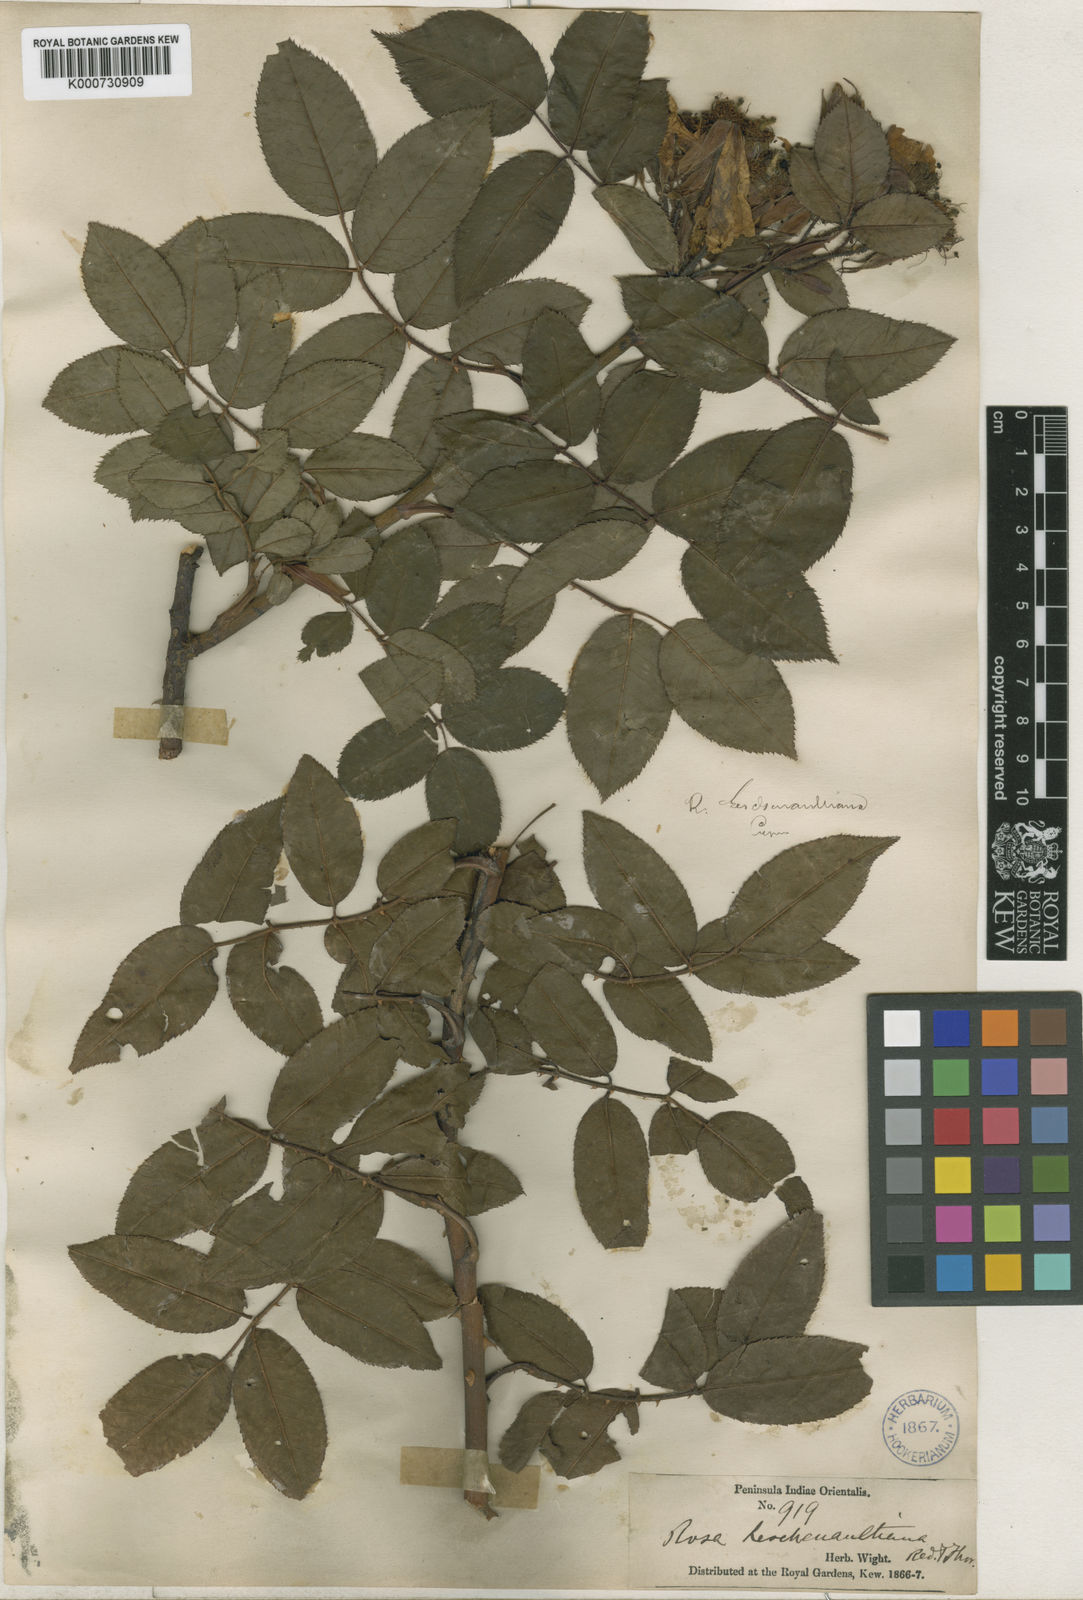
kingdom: Plantae
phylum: Tracheophyta
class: Magnoliopsida
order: Rosales
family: Rosaceae
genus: Rosa
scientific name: Rosa leschenaultiana
